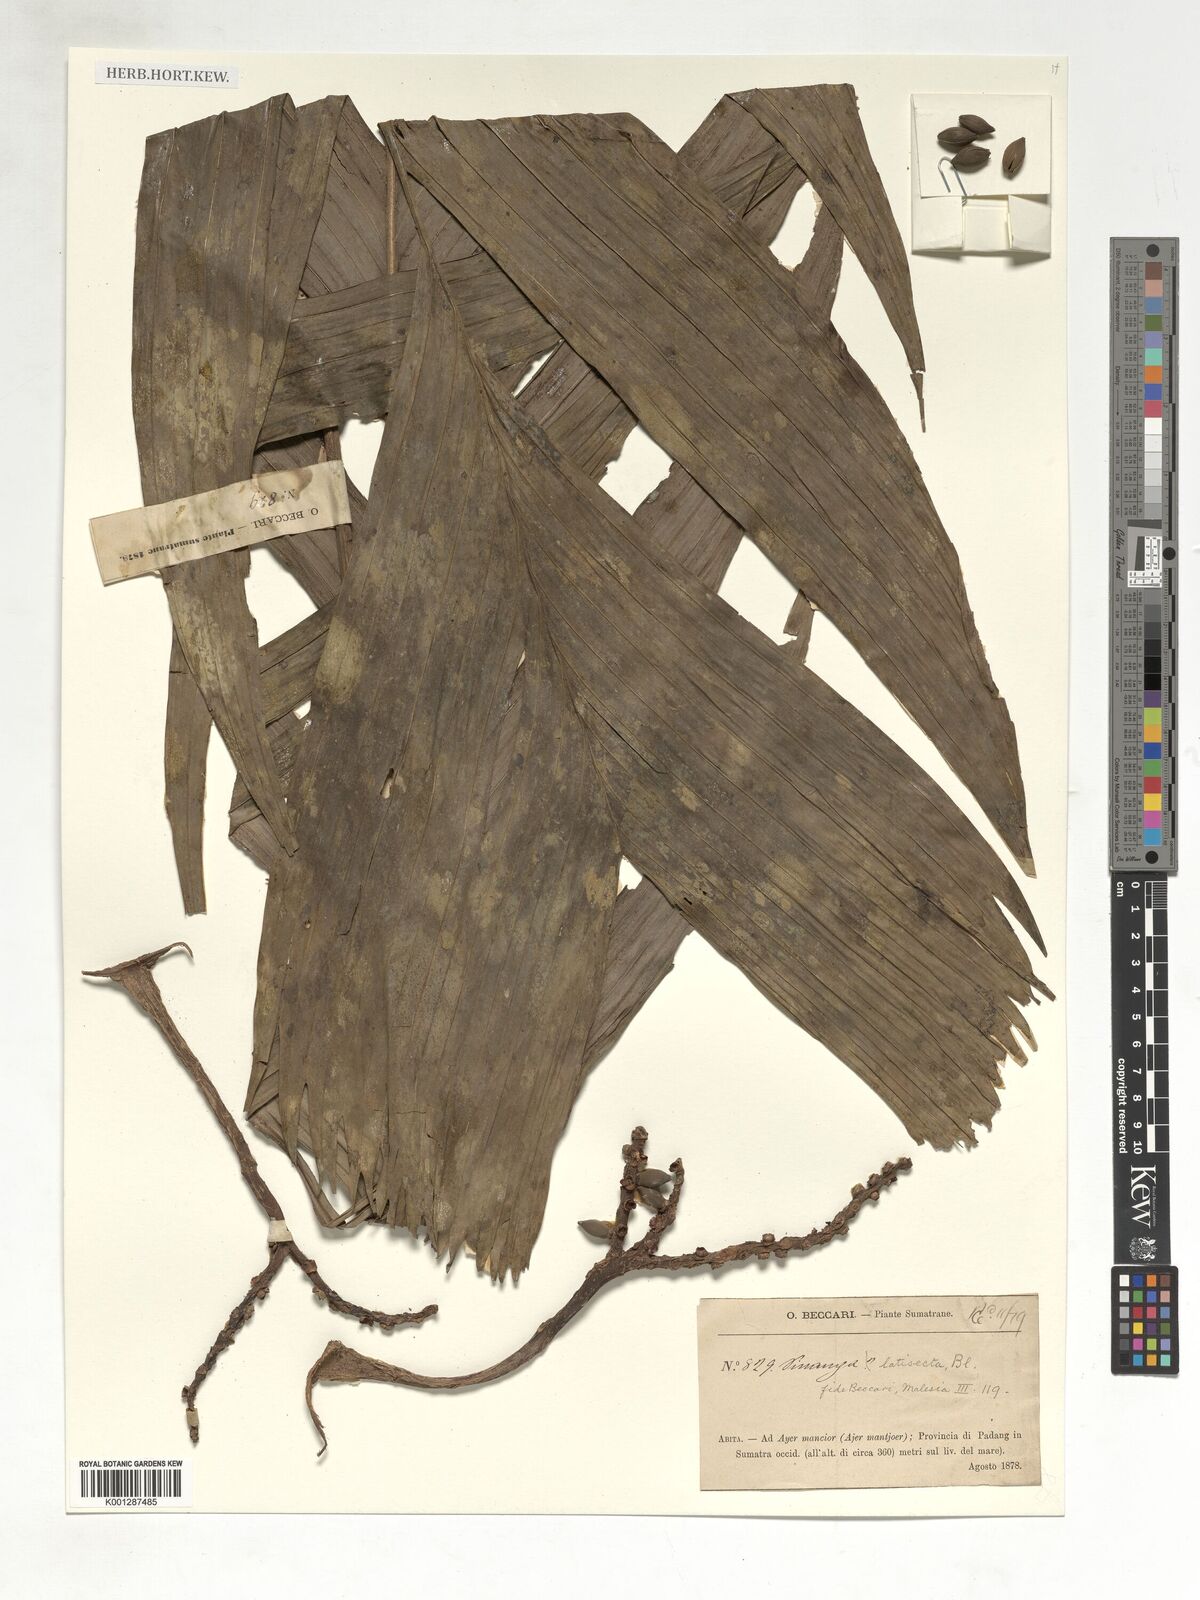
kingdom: Plantae
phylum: Tracheophyta
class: Liliopsida
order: Arecales
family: Arecaceae
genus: Pinanga
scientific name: Pinanga latisecta
